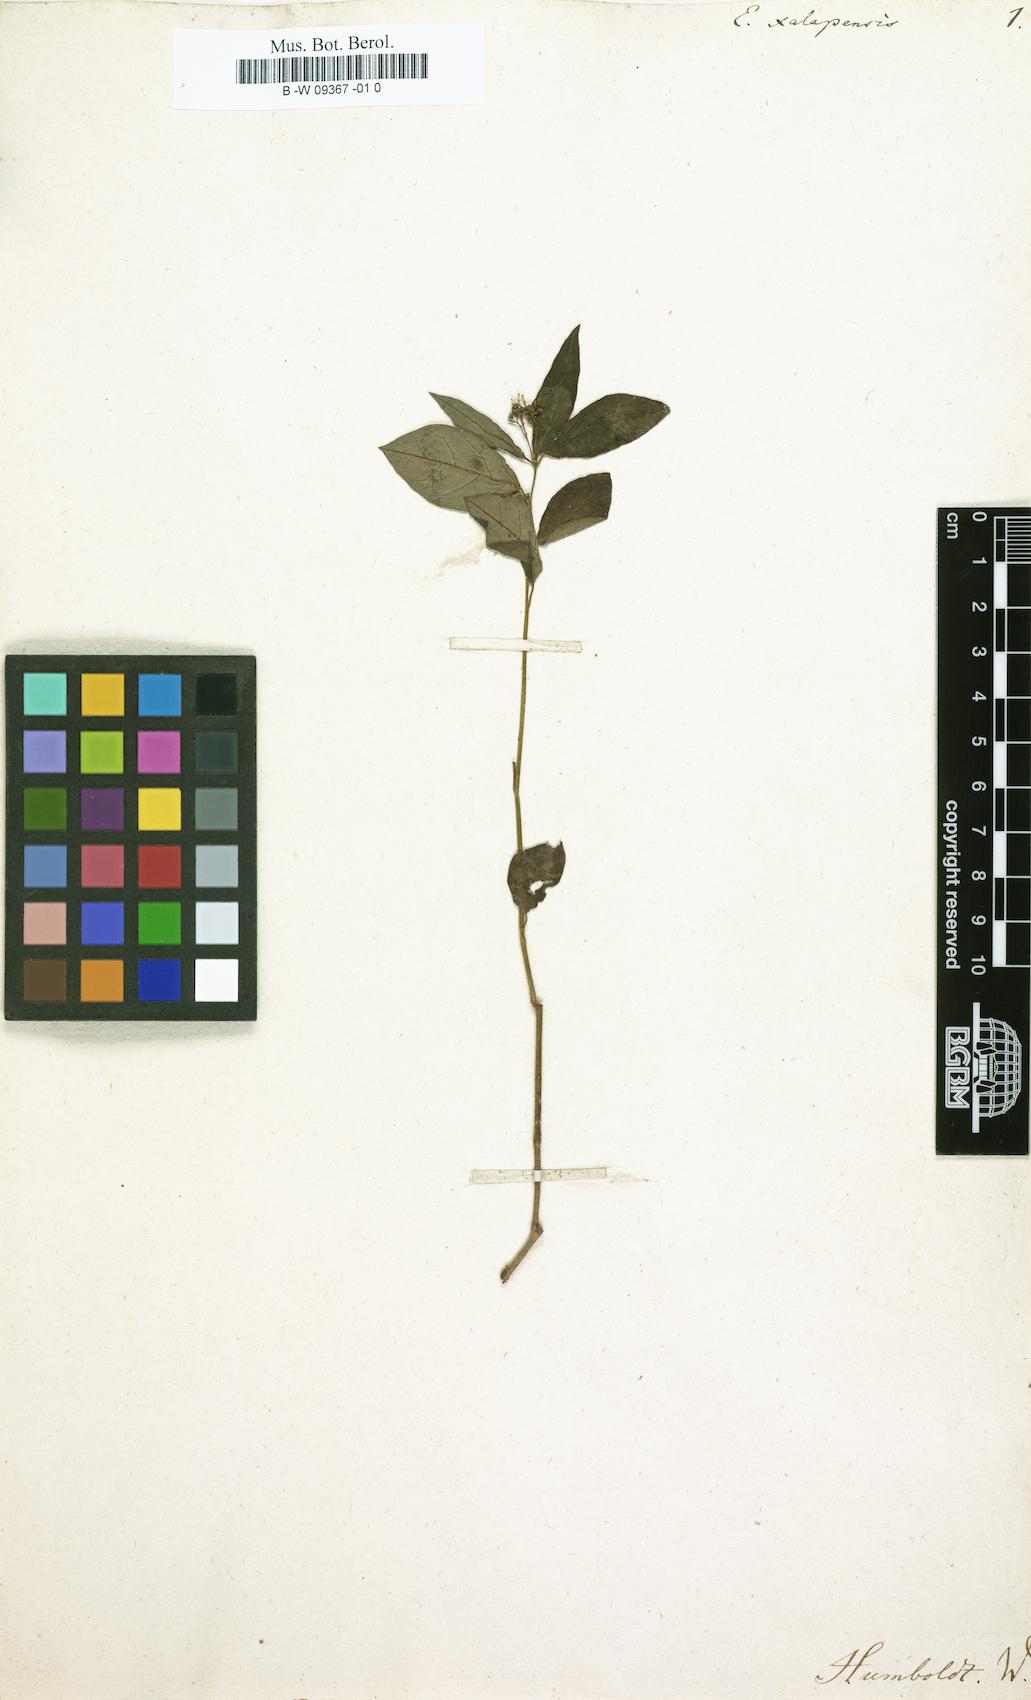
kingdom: Plantae
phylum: Tracheophyta
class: Magnoliopsida
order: Malpighiales
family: Euphorbiaceae
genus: Euphorbia
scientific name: Euphorbia xalapensis
